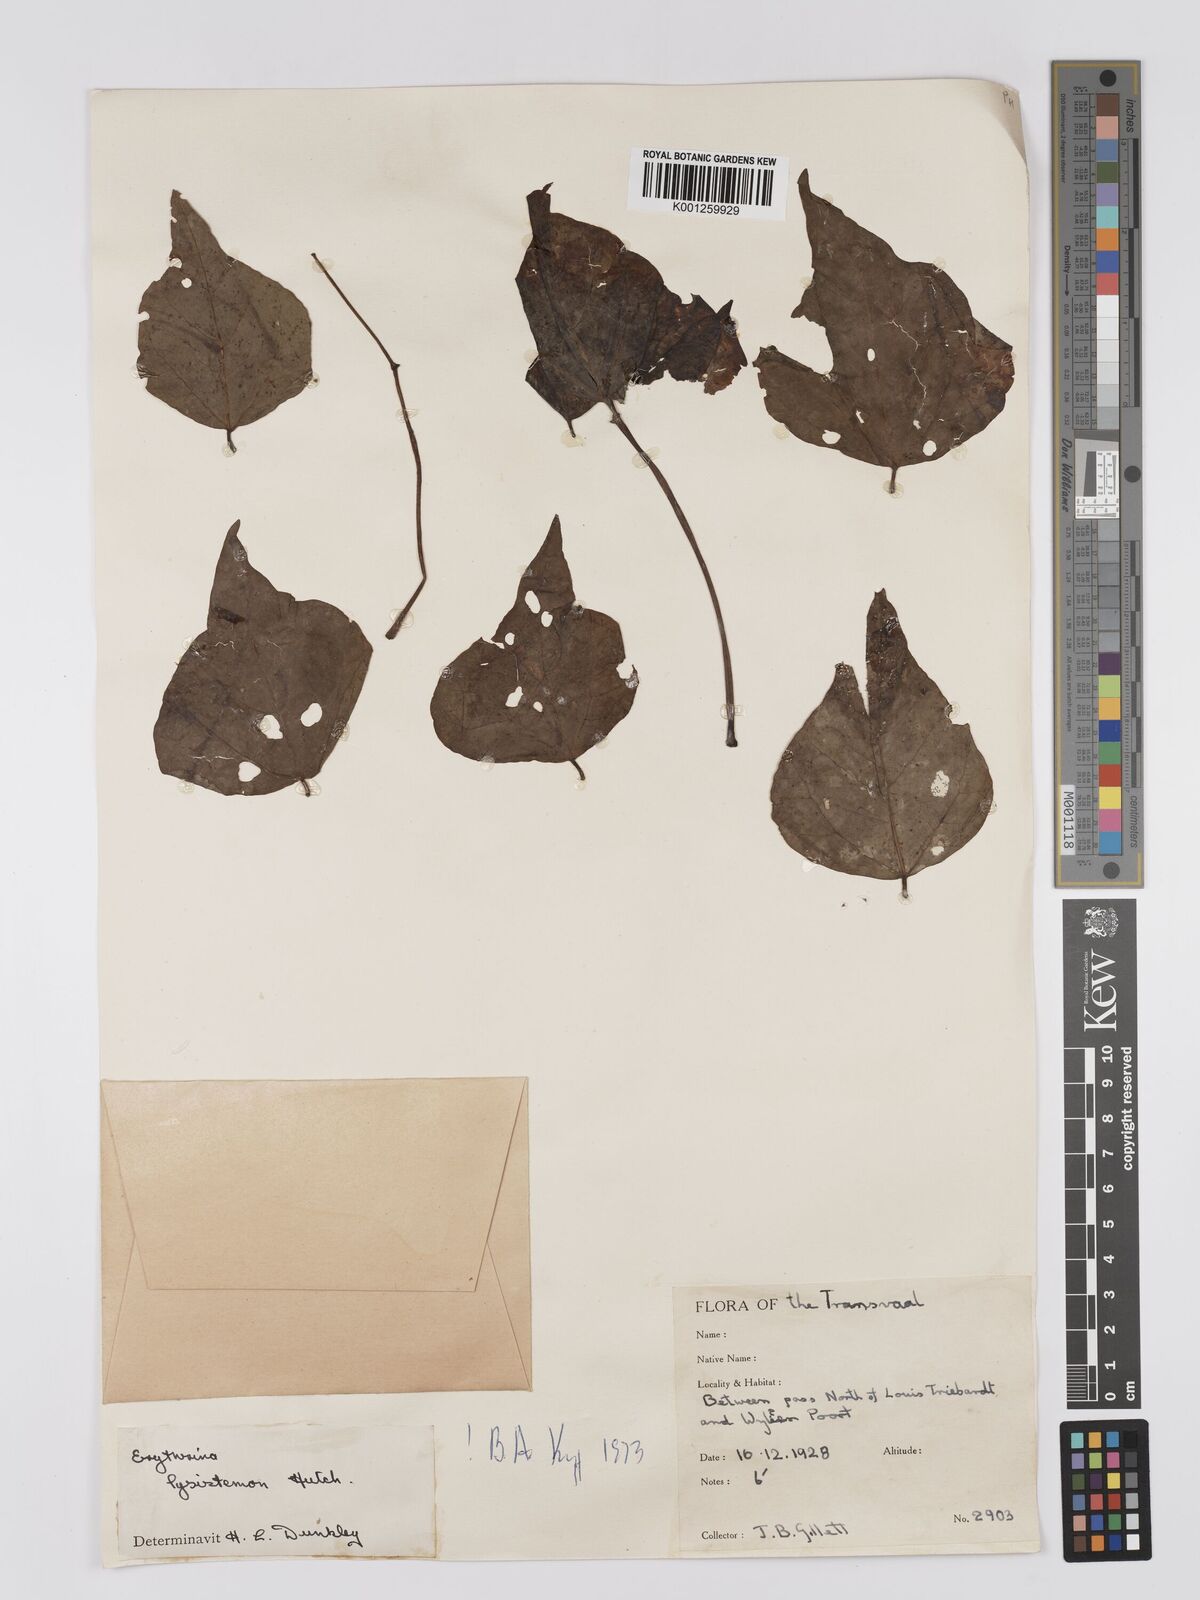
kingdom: Plantae
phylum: Tracheophyta
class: Magnoliopsida
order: Fabales
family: Fabaceae
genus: Erythrina
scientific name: Erythrina lysistemon
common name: Common coral tree
